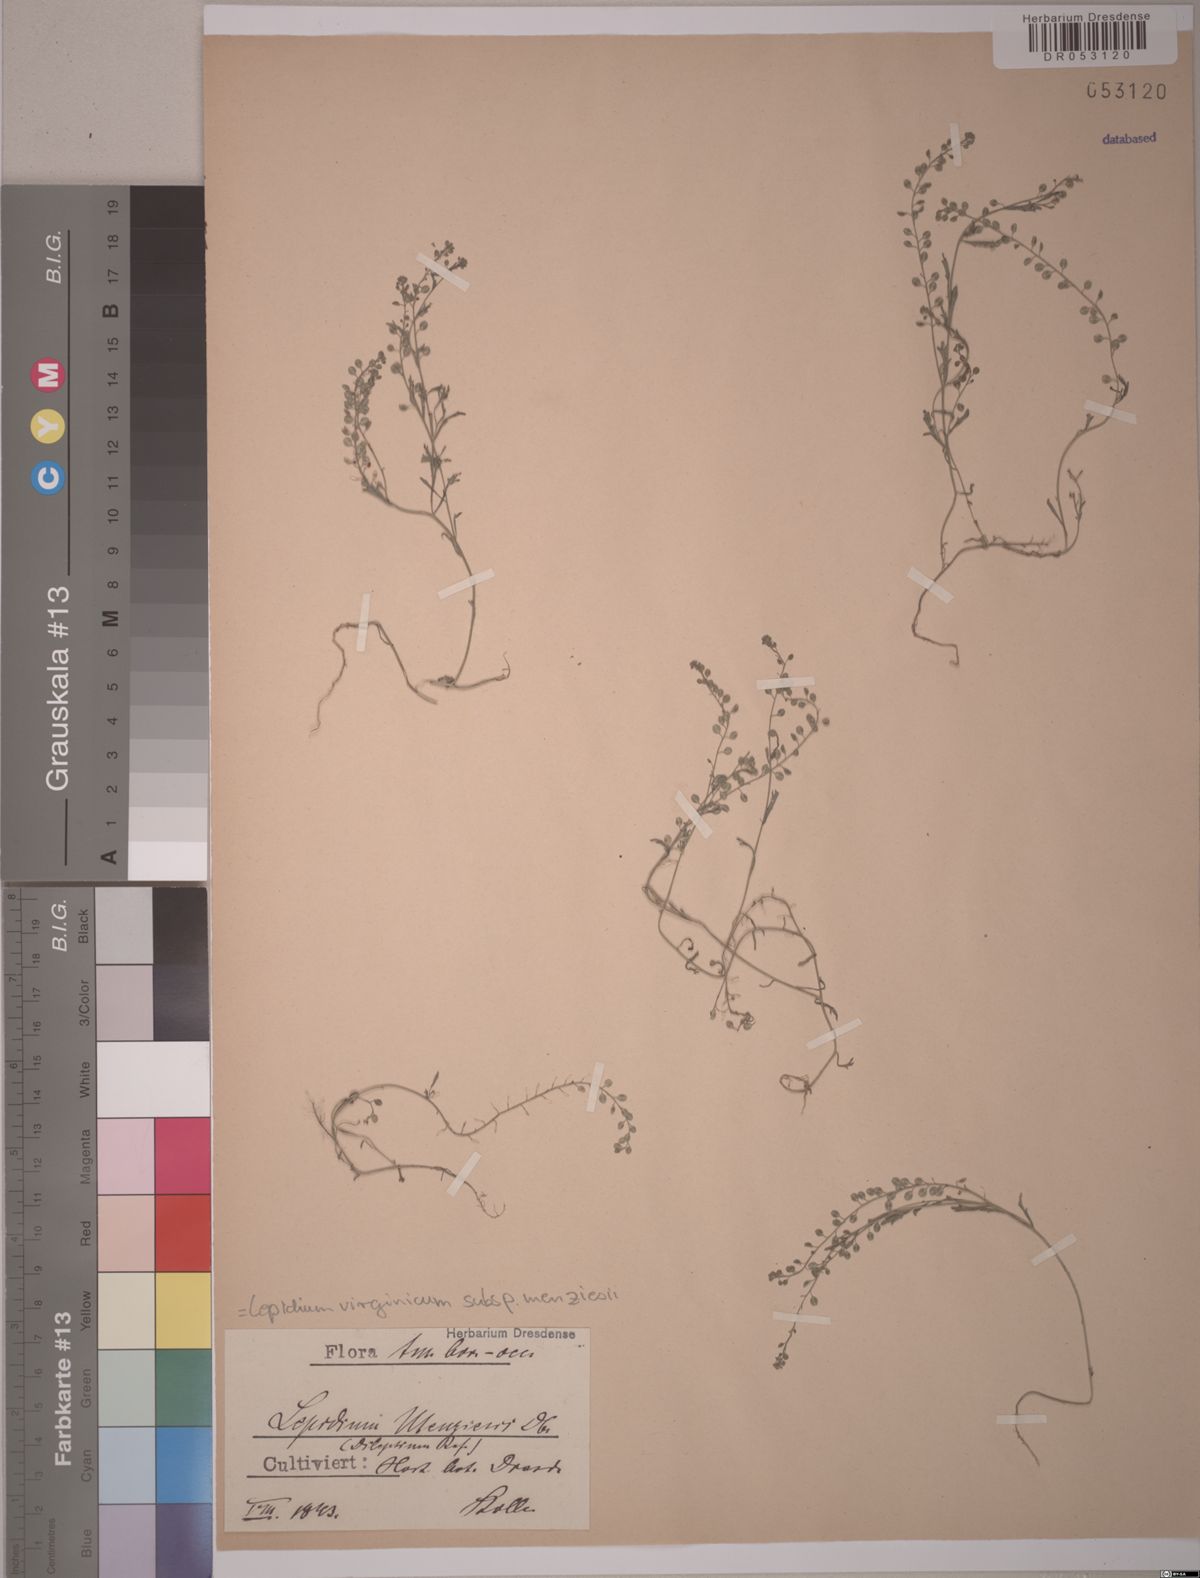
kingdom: Plantae
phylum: Tracheophyta
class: Magnoliopsida
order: Brassicales
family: Brassicaceae
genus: Lepidium
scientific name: Lepidium virginicum
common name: Least pepperwort
